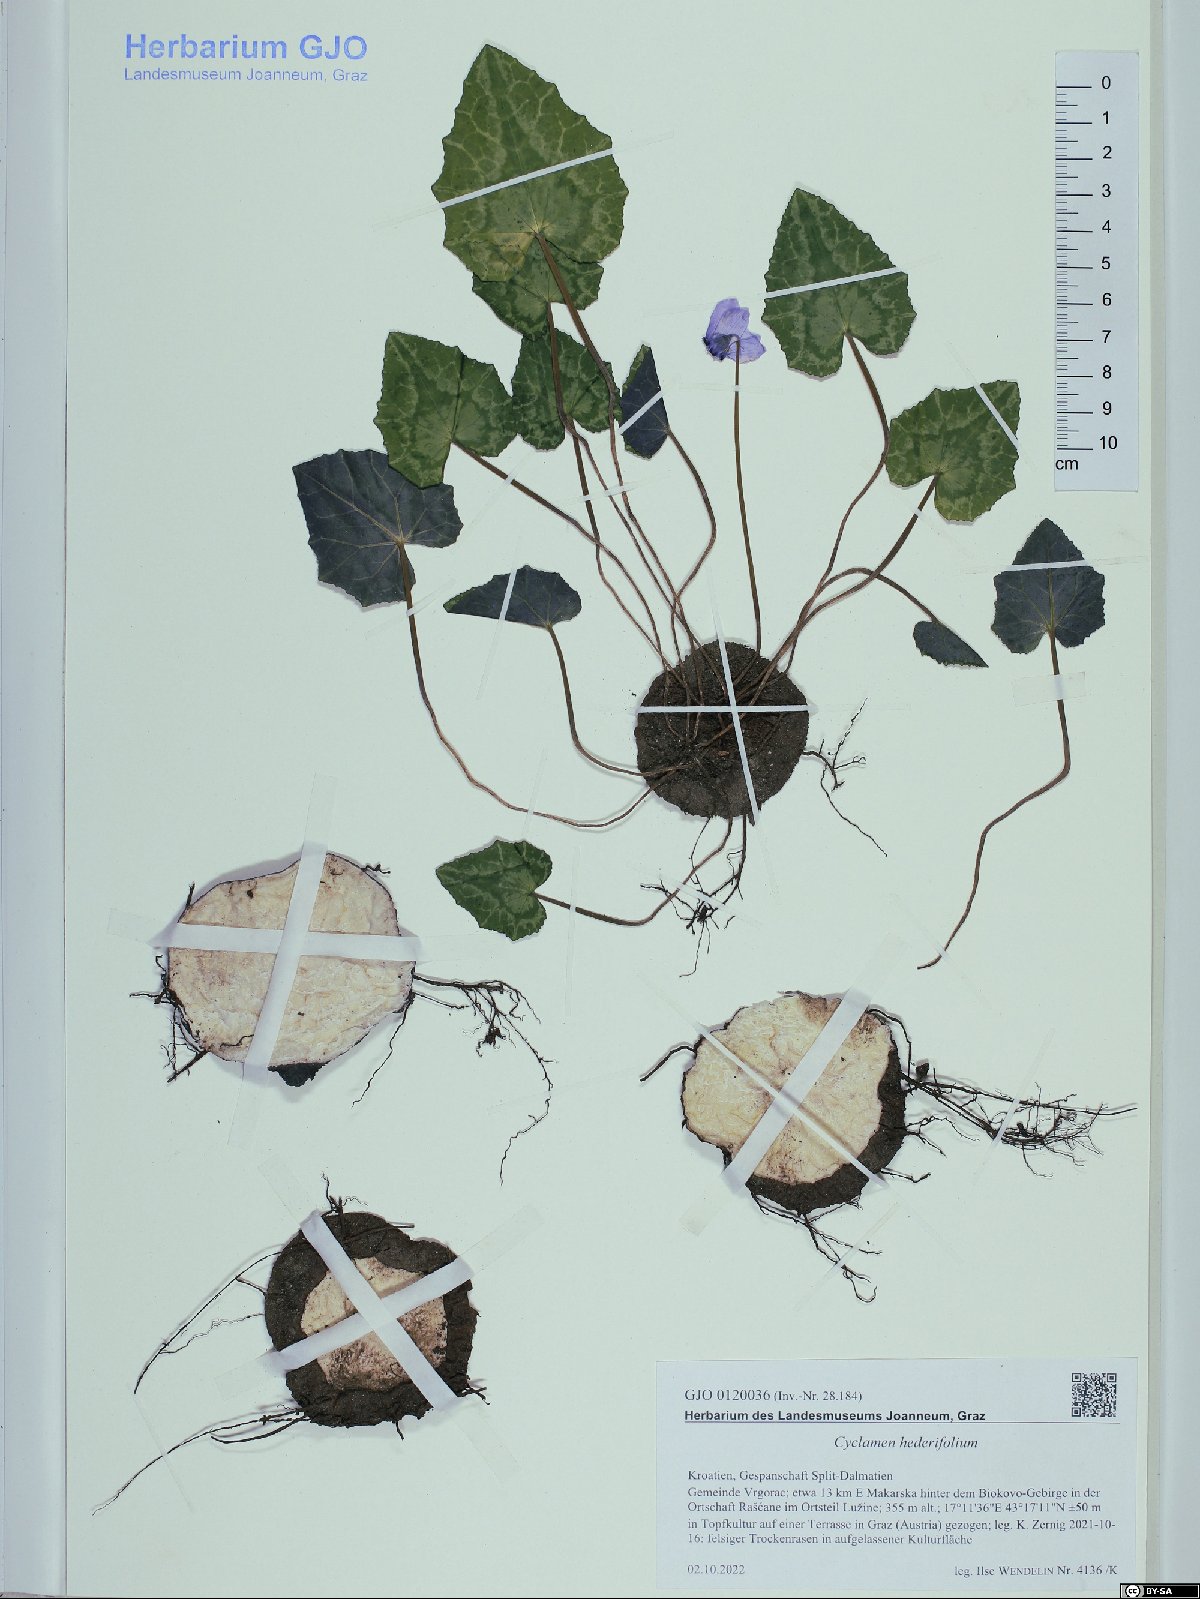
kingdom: Plantae
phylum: Tracheophyta
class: Magnoliopsida
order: Ericales
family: Primulaceae
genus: Cyclamen
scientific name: Cyclamen hederifolium
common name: Sowbread
